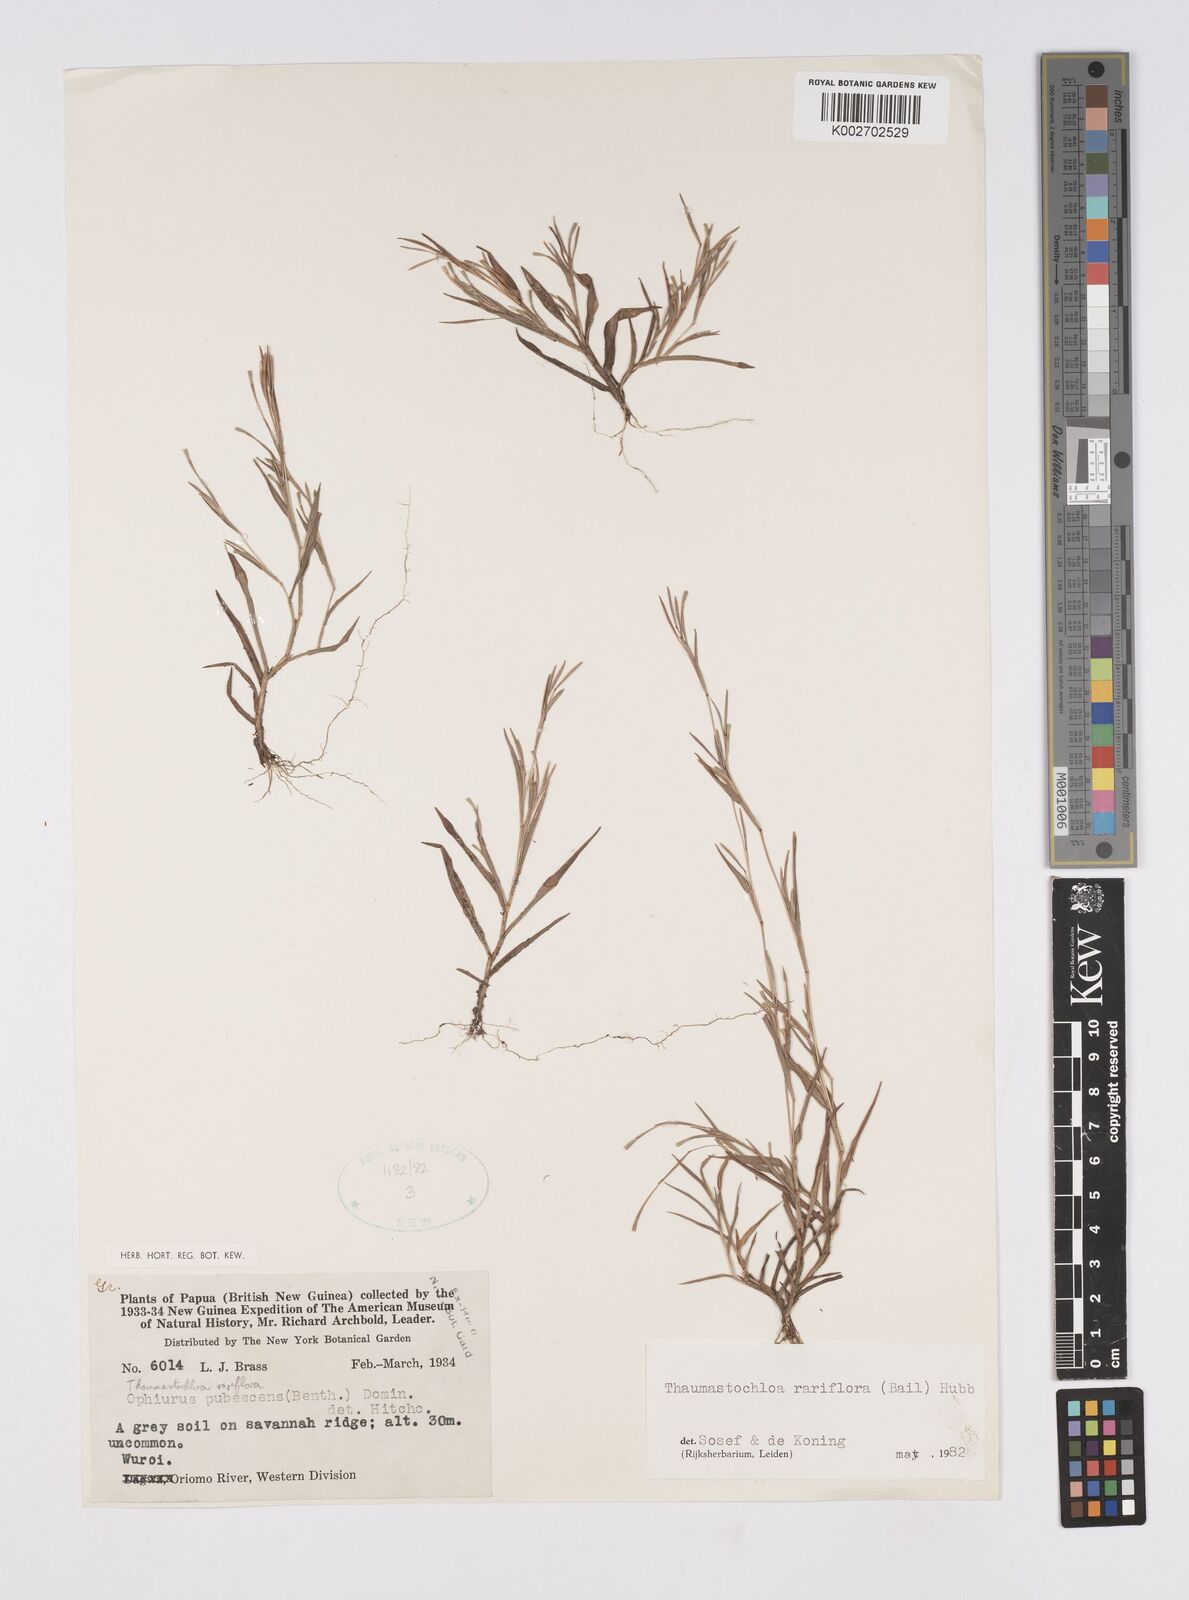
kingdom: Plantae
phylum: Tracheophyta
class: Liliopsida
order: Poales
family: Poaceae
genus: Thaumastochloa
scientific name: Thaumastochloa rariflora
